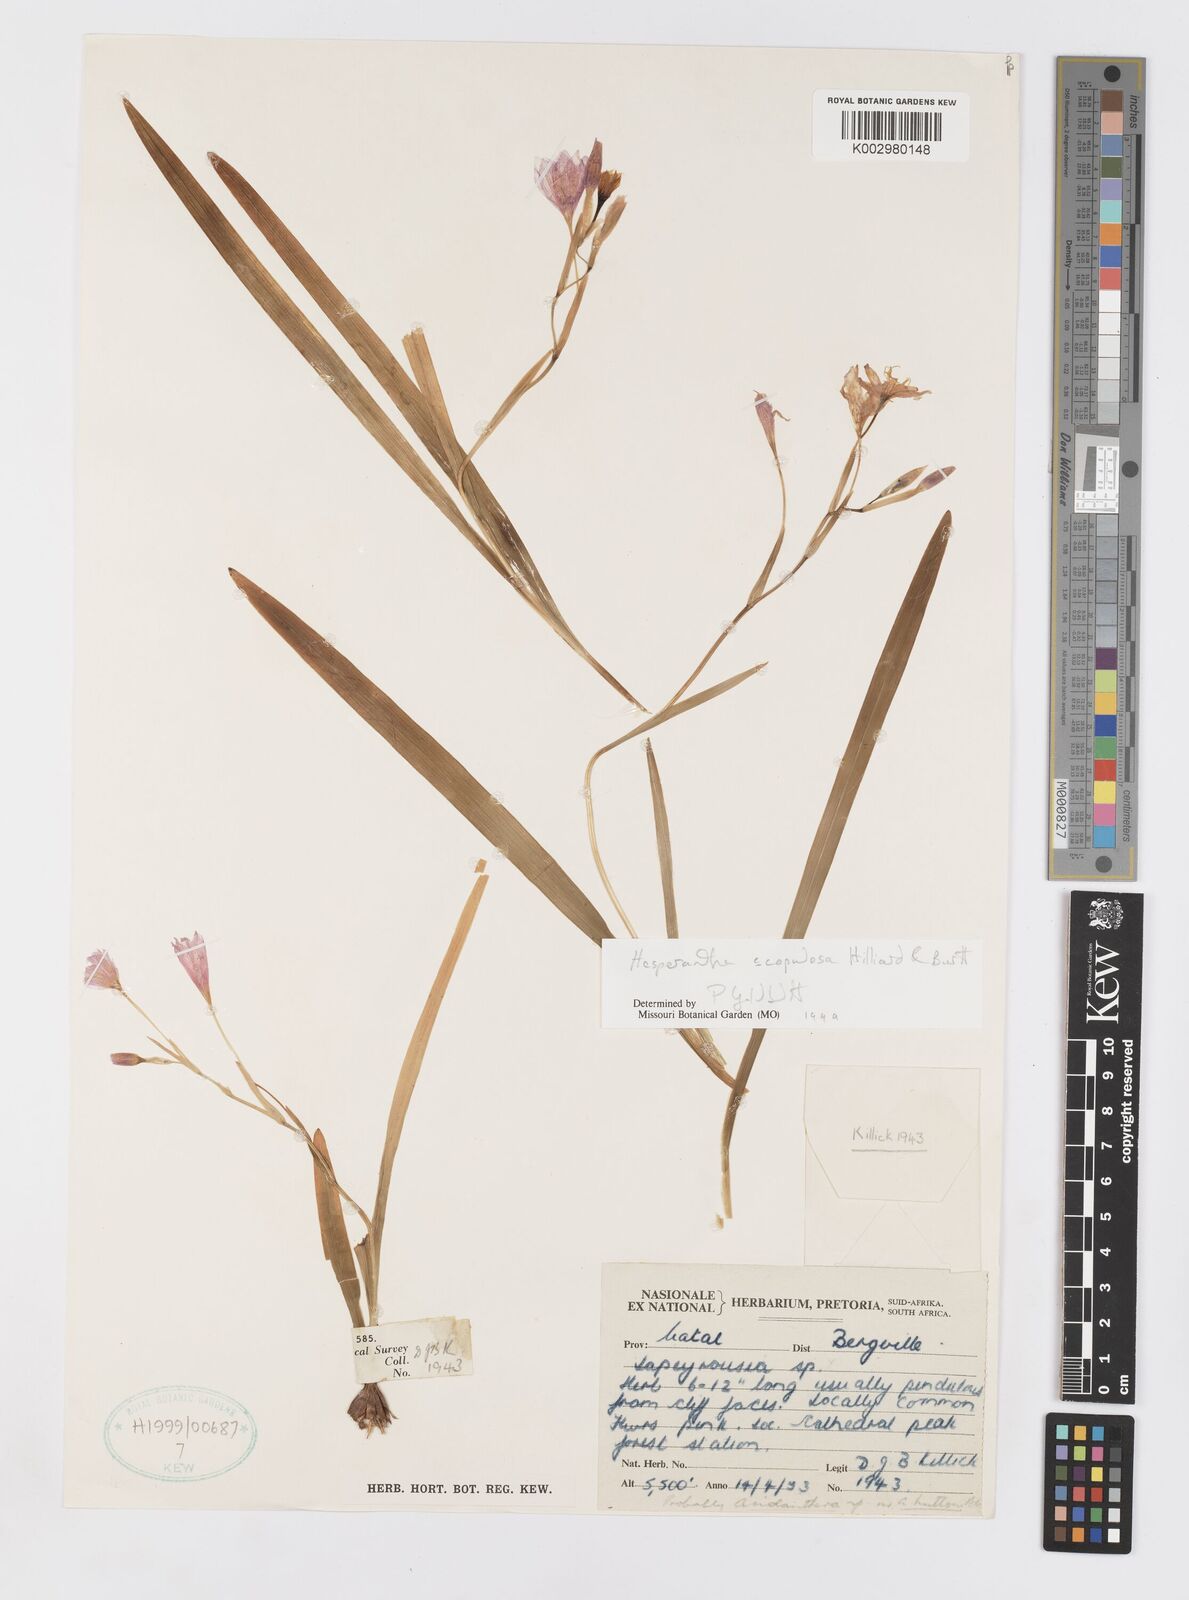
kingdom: Plantae
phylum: Tracheophyta
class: Liliopsida
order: Asparagales
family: Iridaceae
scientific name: Iridaceae
